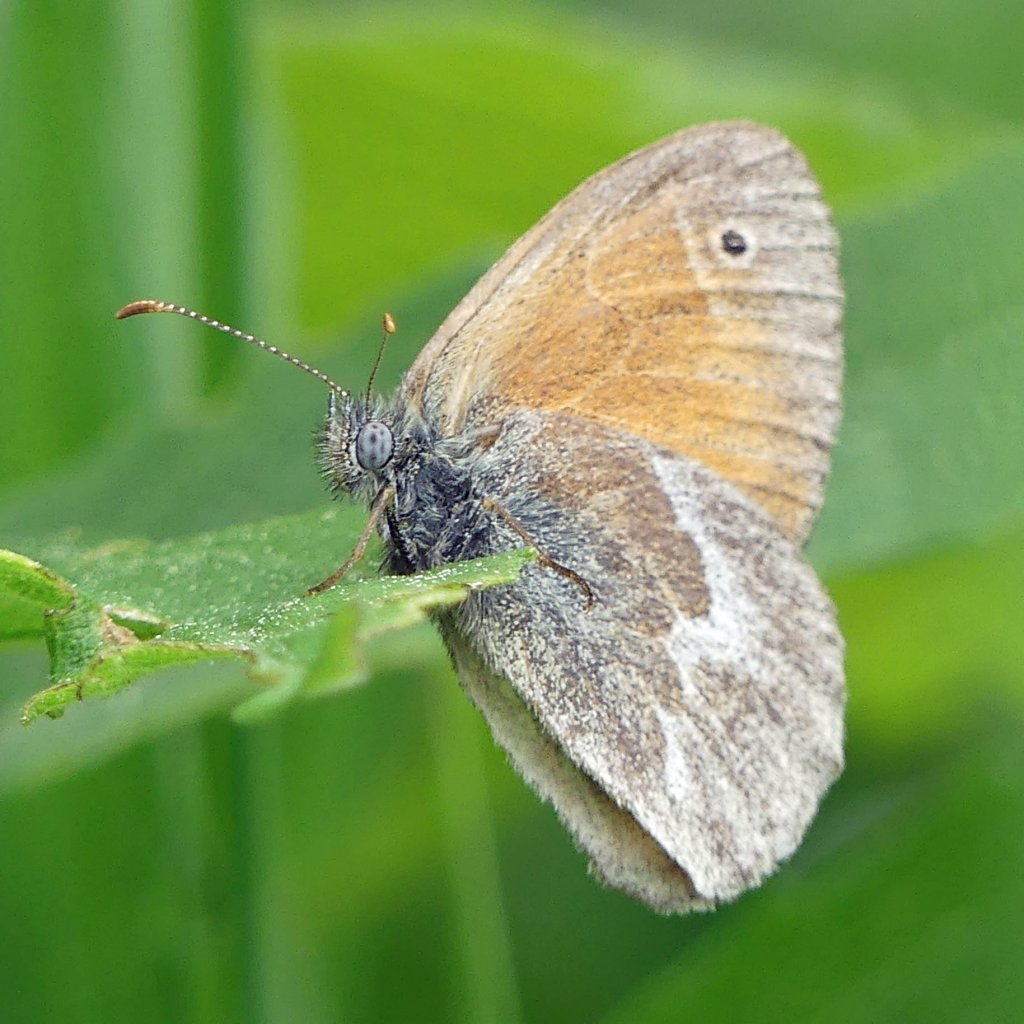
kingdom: Animalia
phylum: Arthropoda
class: Insecta
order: Lepidoptera
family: Nymphalidae
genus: Coenonympha
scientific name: Coenonympha tullia
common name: Large Heath
